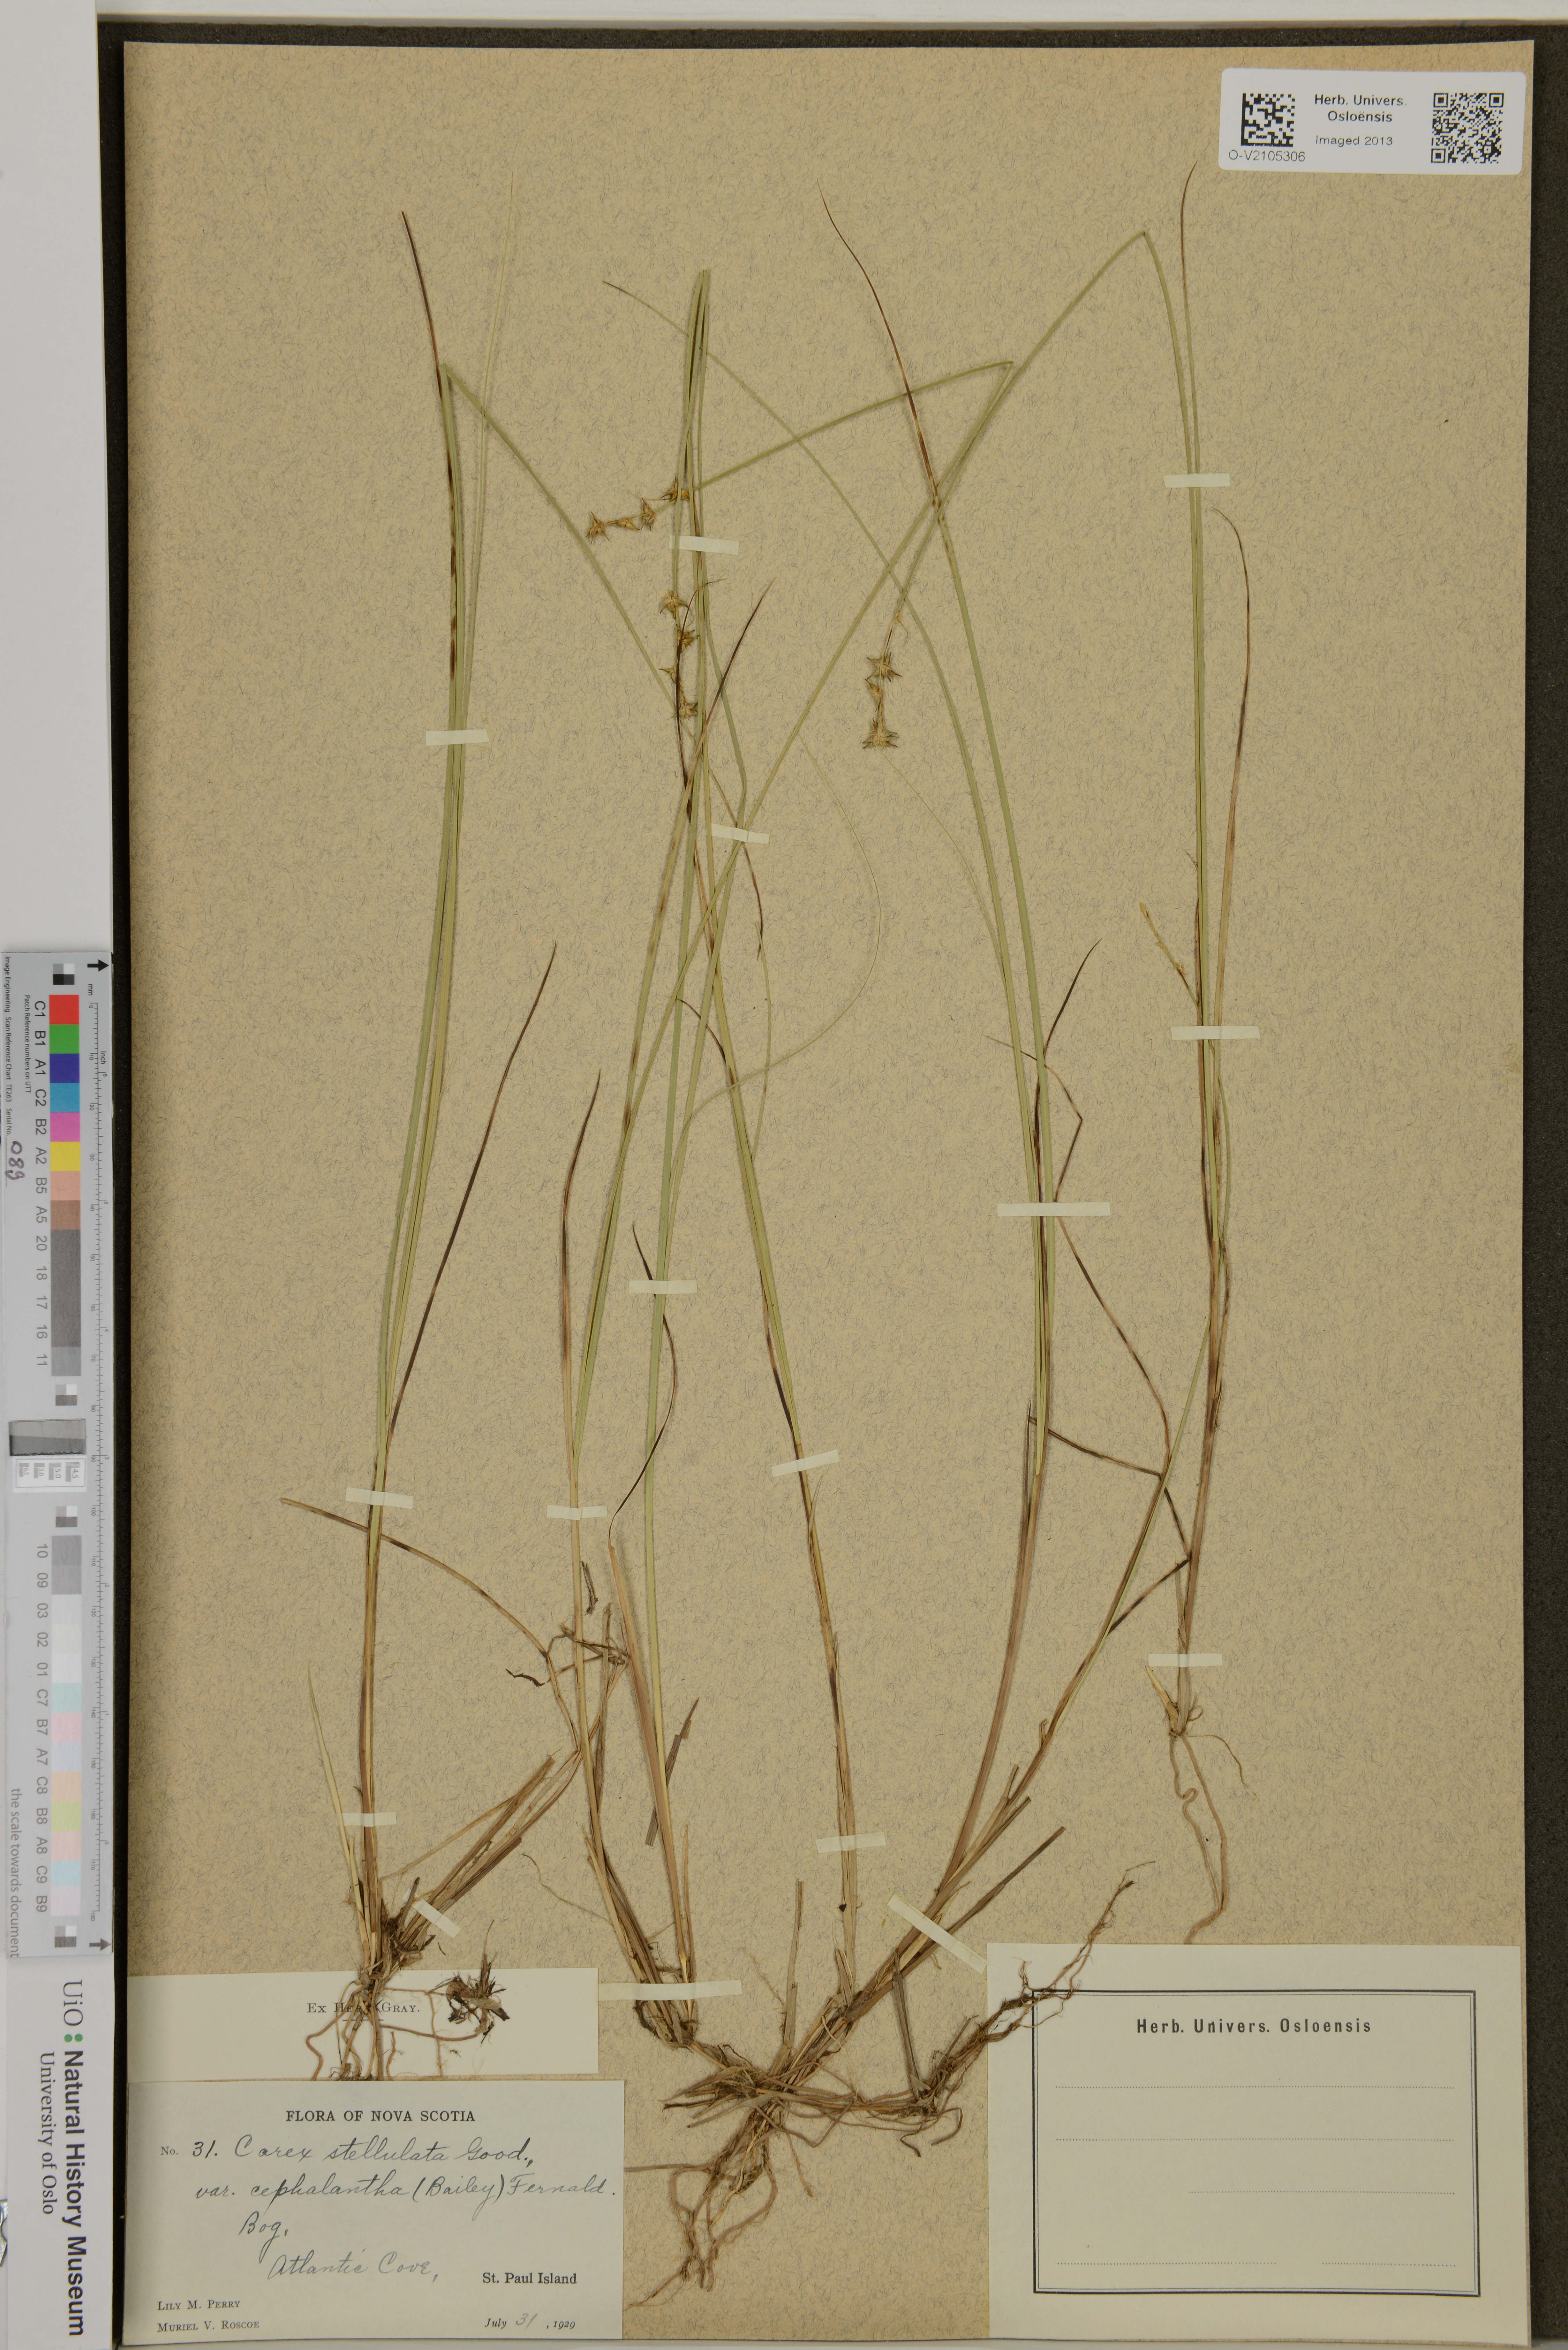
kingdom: Plantae
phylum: Tracheophyta
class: Liliopsida
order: Poales
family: Cyperaceae
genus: Carex
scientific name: Carex echinata
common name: Star sedge
